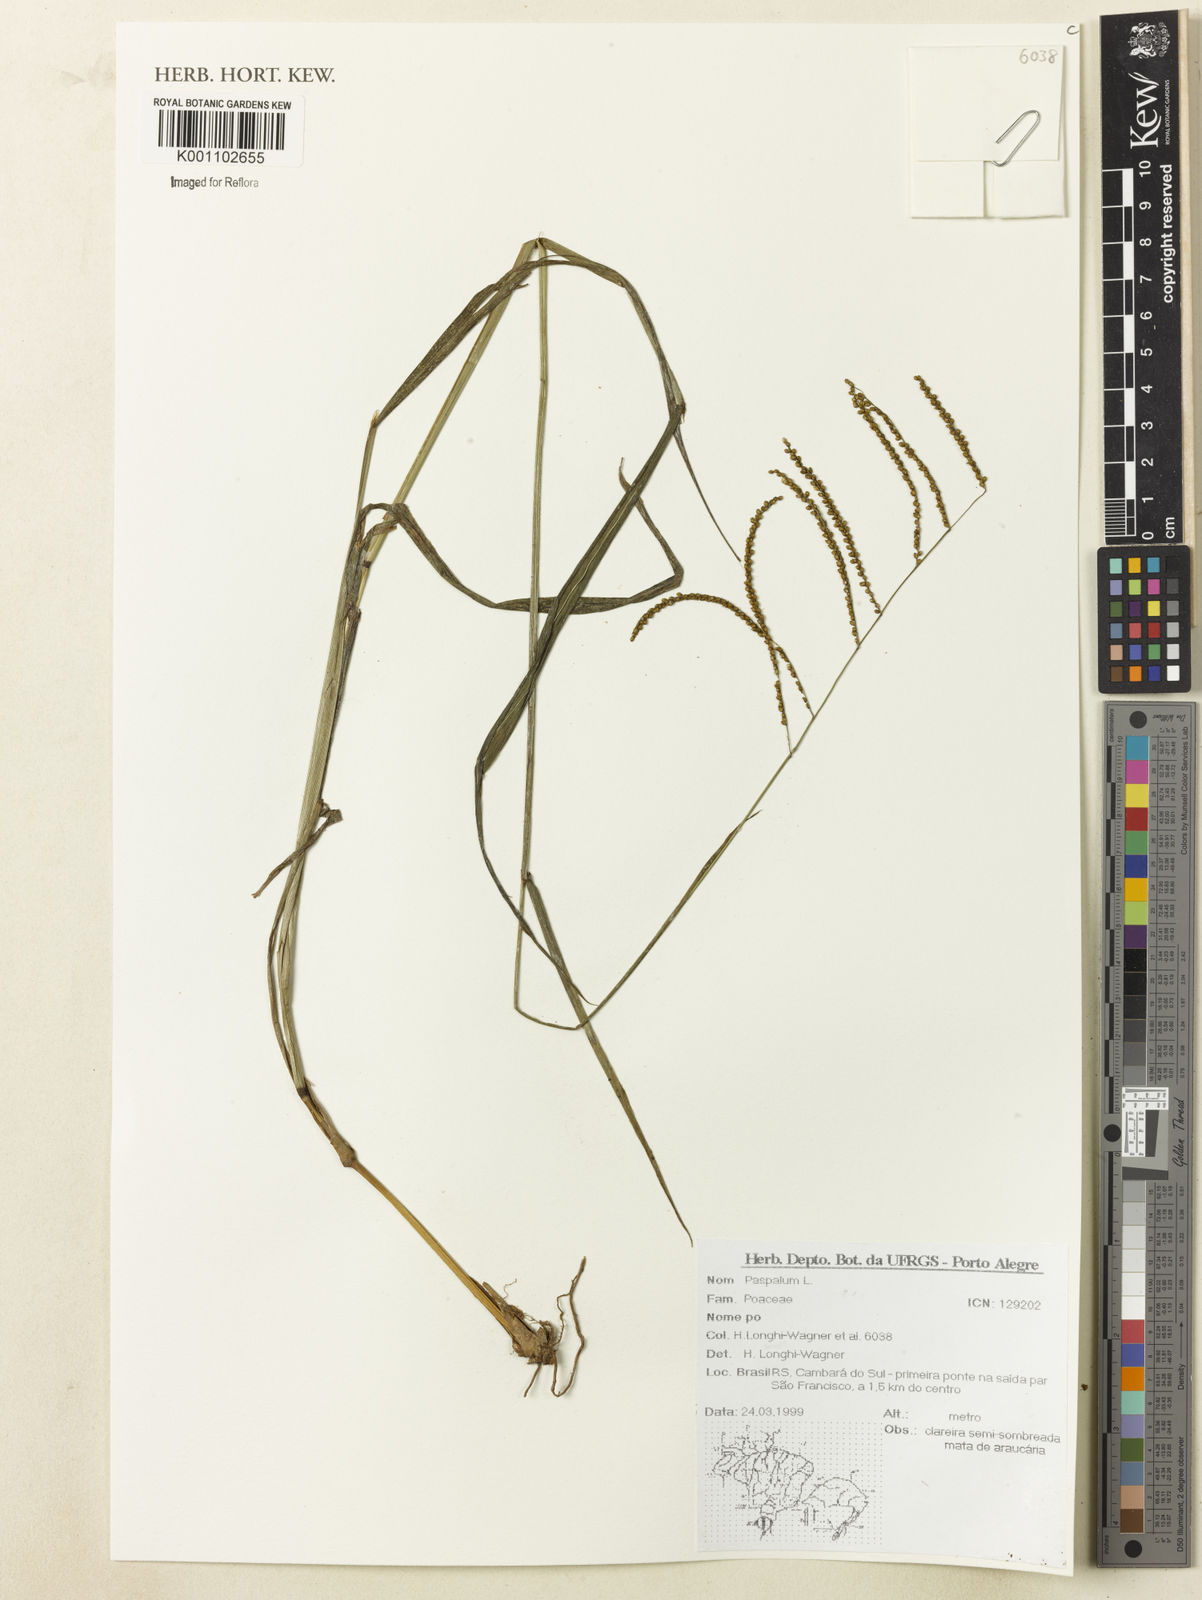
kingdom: Plantae
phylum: Tracheophyta
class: Liliopsida
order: Poales
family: Poaceae
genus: Paspalum
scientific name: Paspalum
